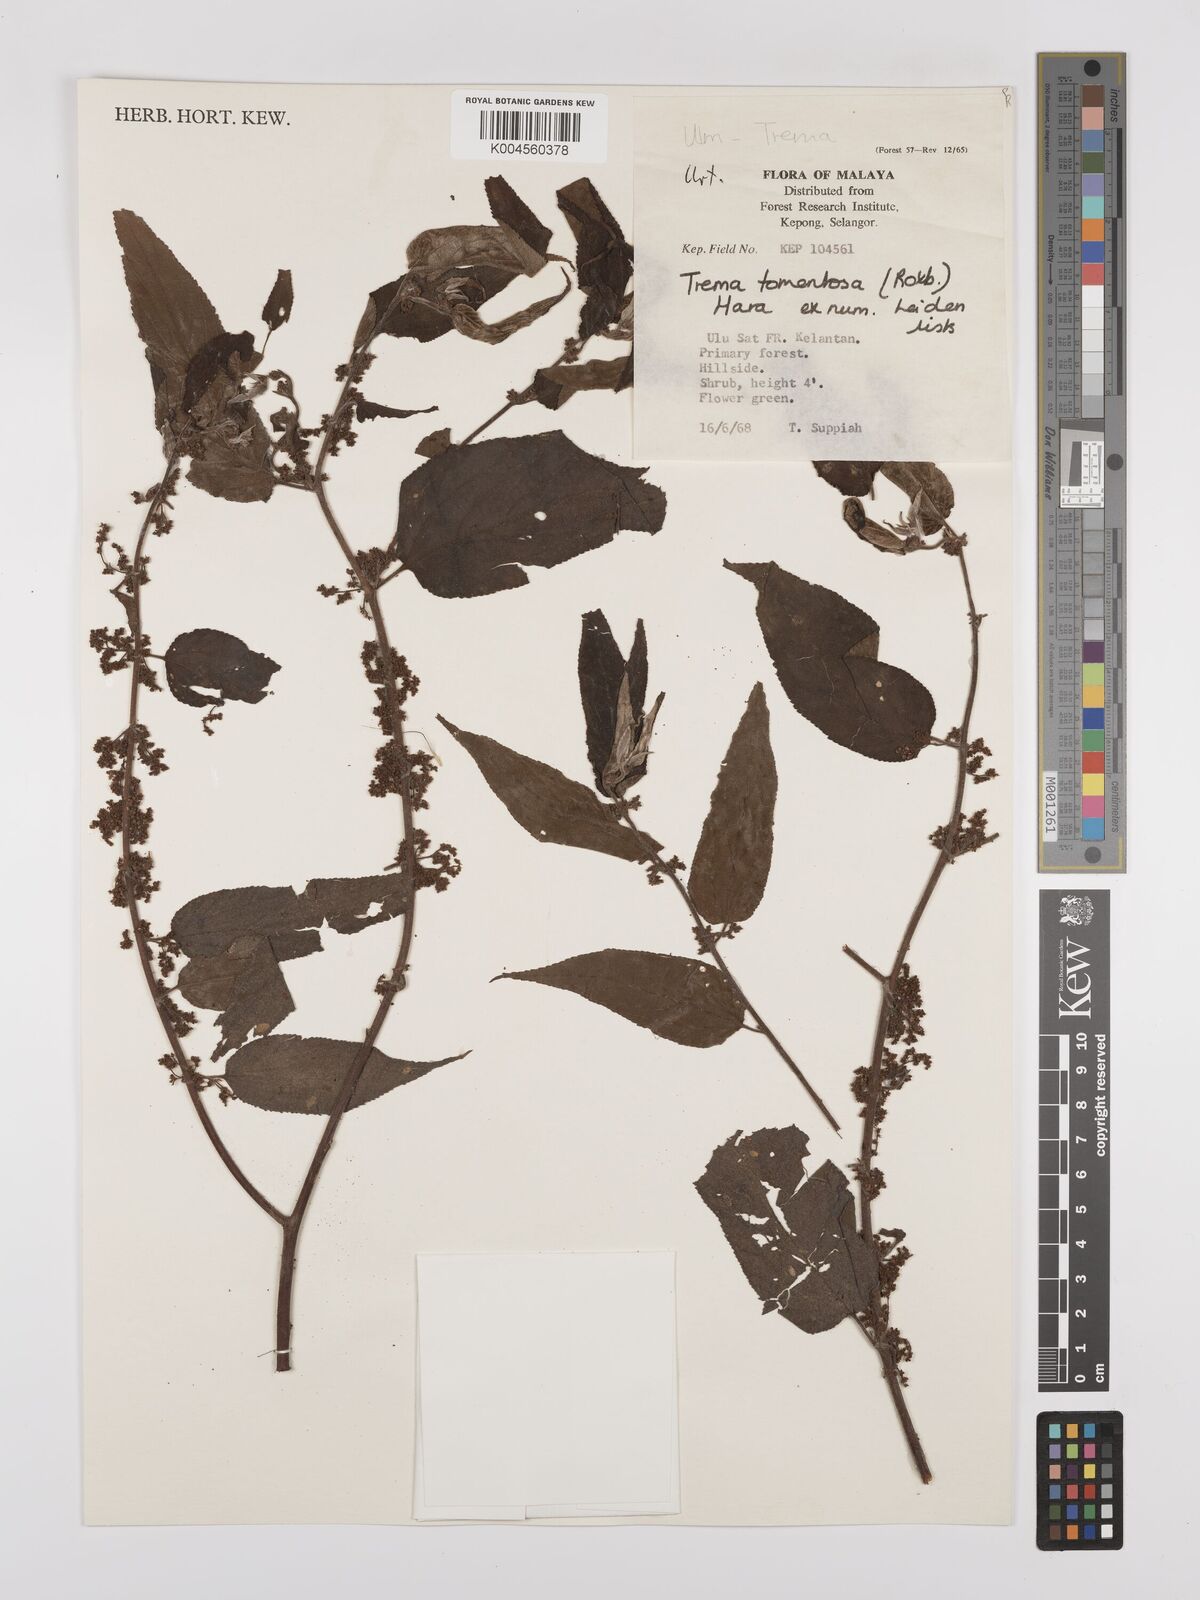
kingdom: Plantae
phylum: Tracheophyta
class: Magnoliopsida
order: Rosales
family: Cannabaceae
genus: Trema
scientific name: Trema tomentosum
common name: Peach-leaf-poisonbush
